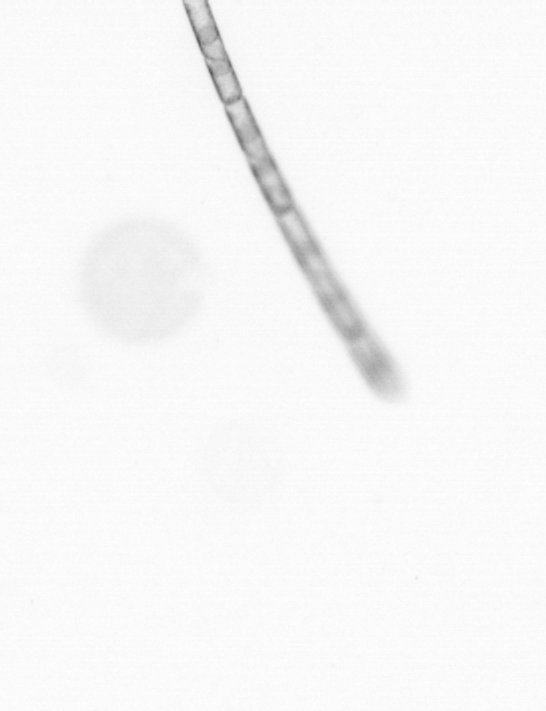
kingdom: Chromista
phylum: Ochrophyta
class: Bacillariophyceae
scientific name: Bacillariophyceae
